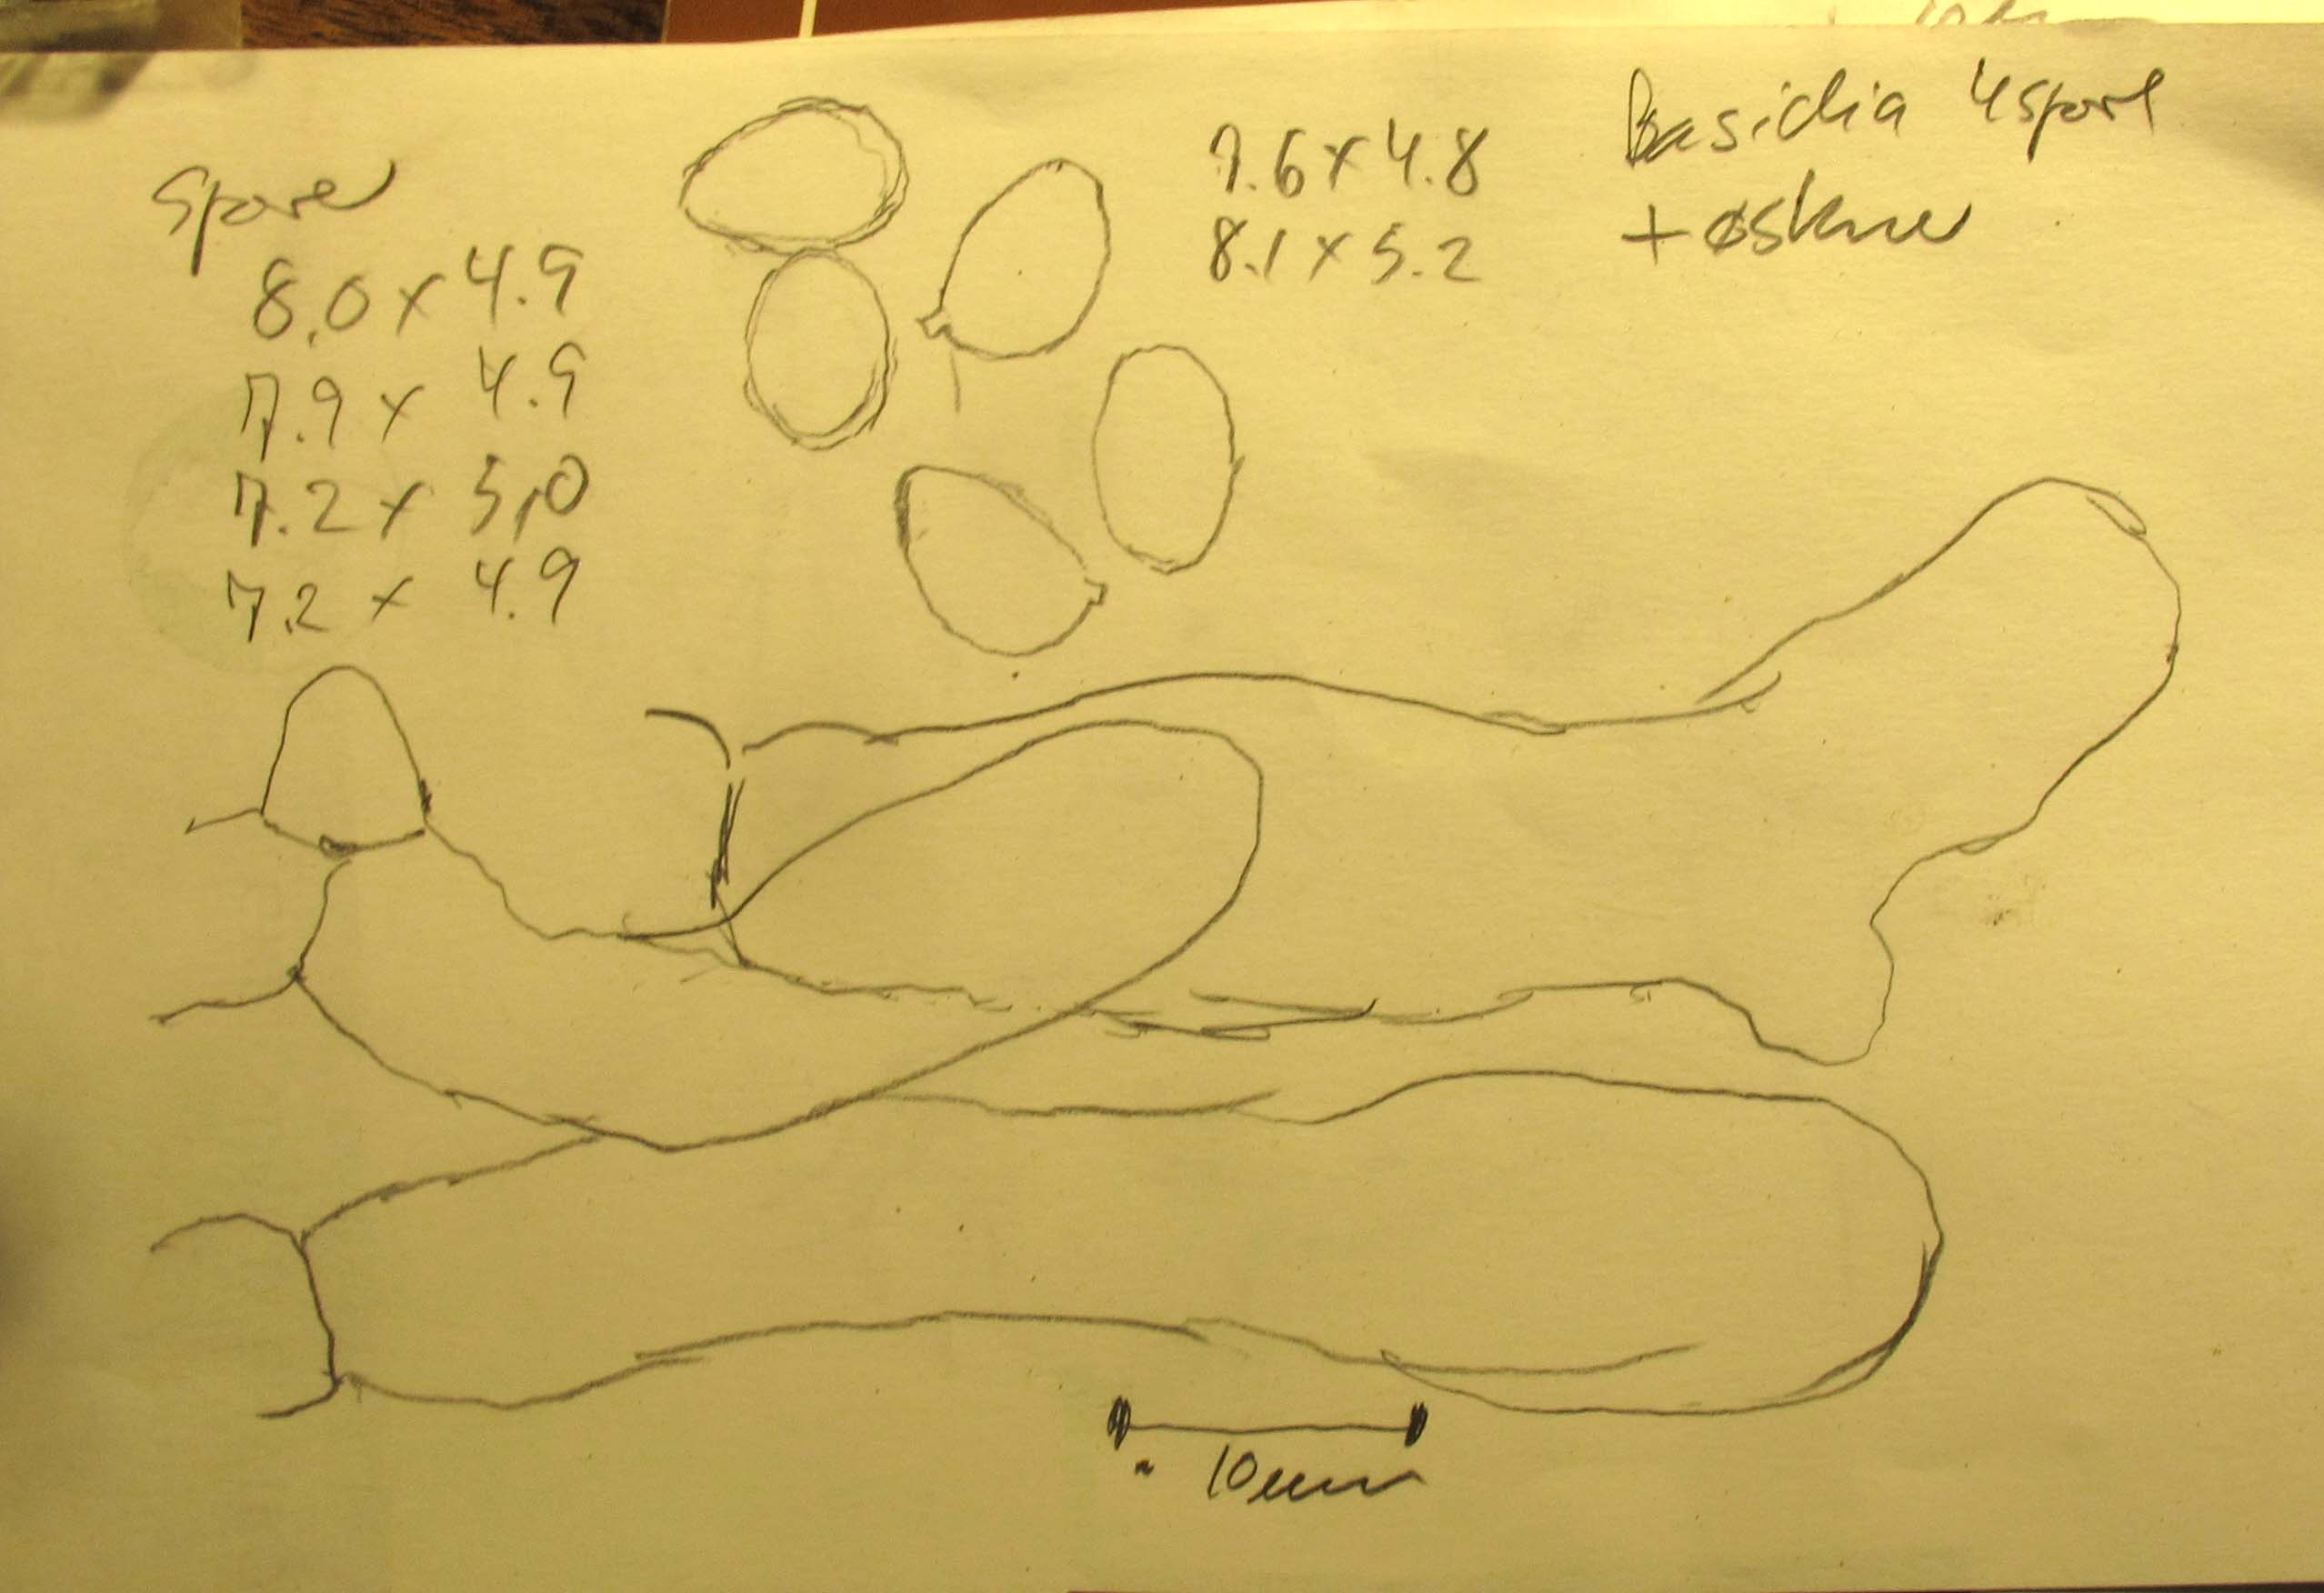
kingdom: Fungi
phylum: Basidiomycota
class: Agaricomycetes
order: Agaricales
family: Crepidotaceae
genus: Crepidotus
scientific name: Crepidotus caspari
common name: Lundells muslingesvamp
